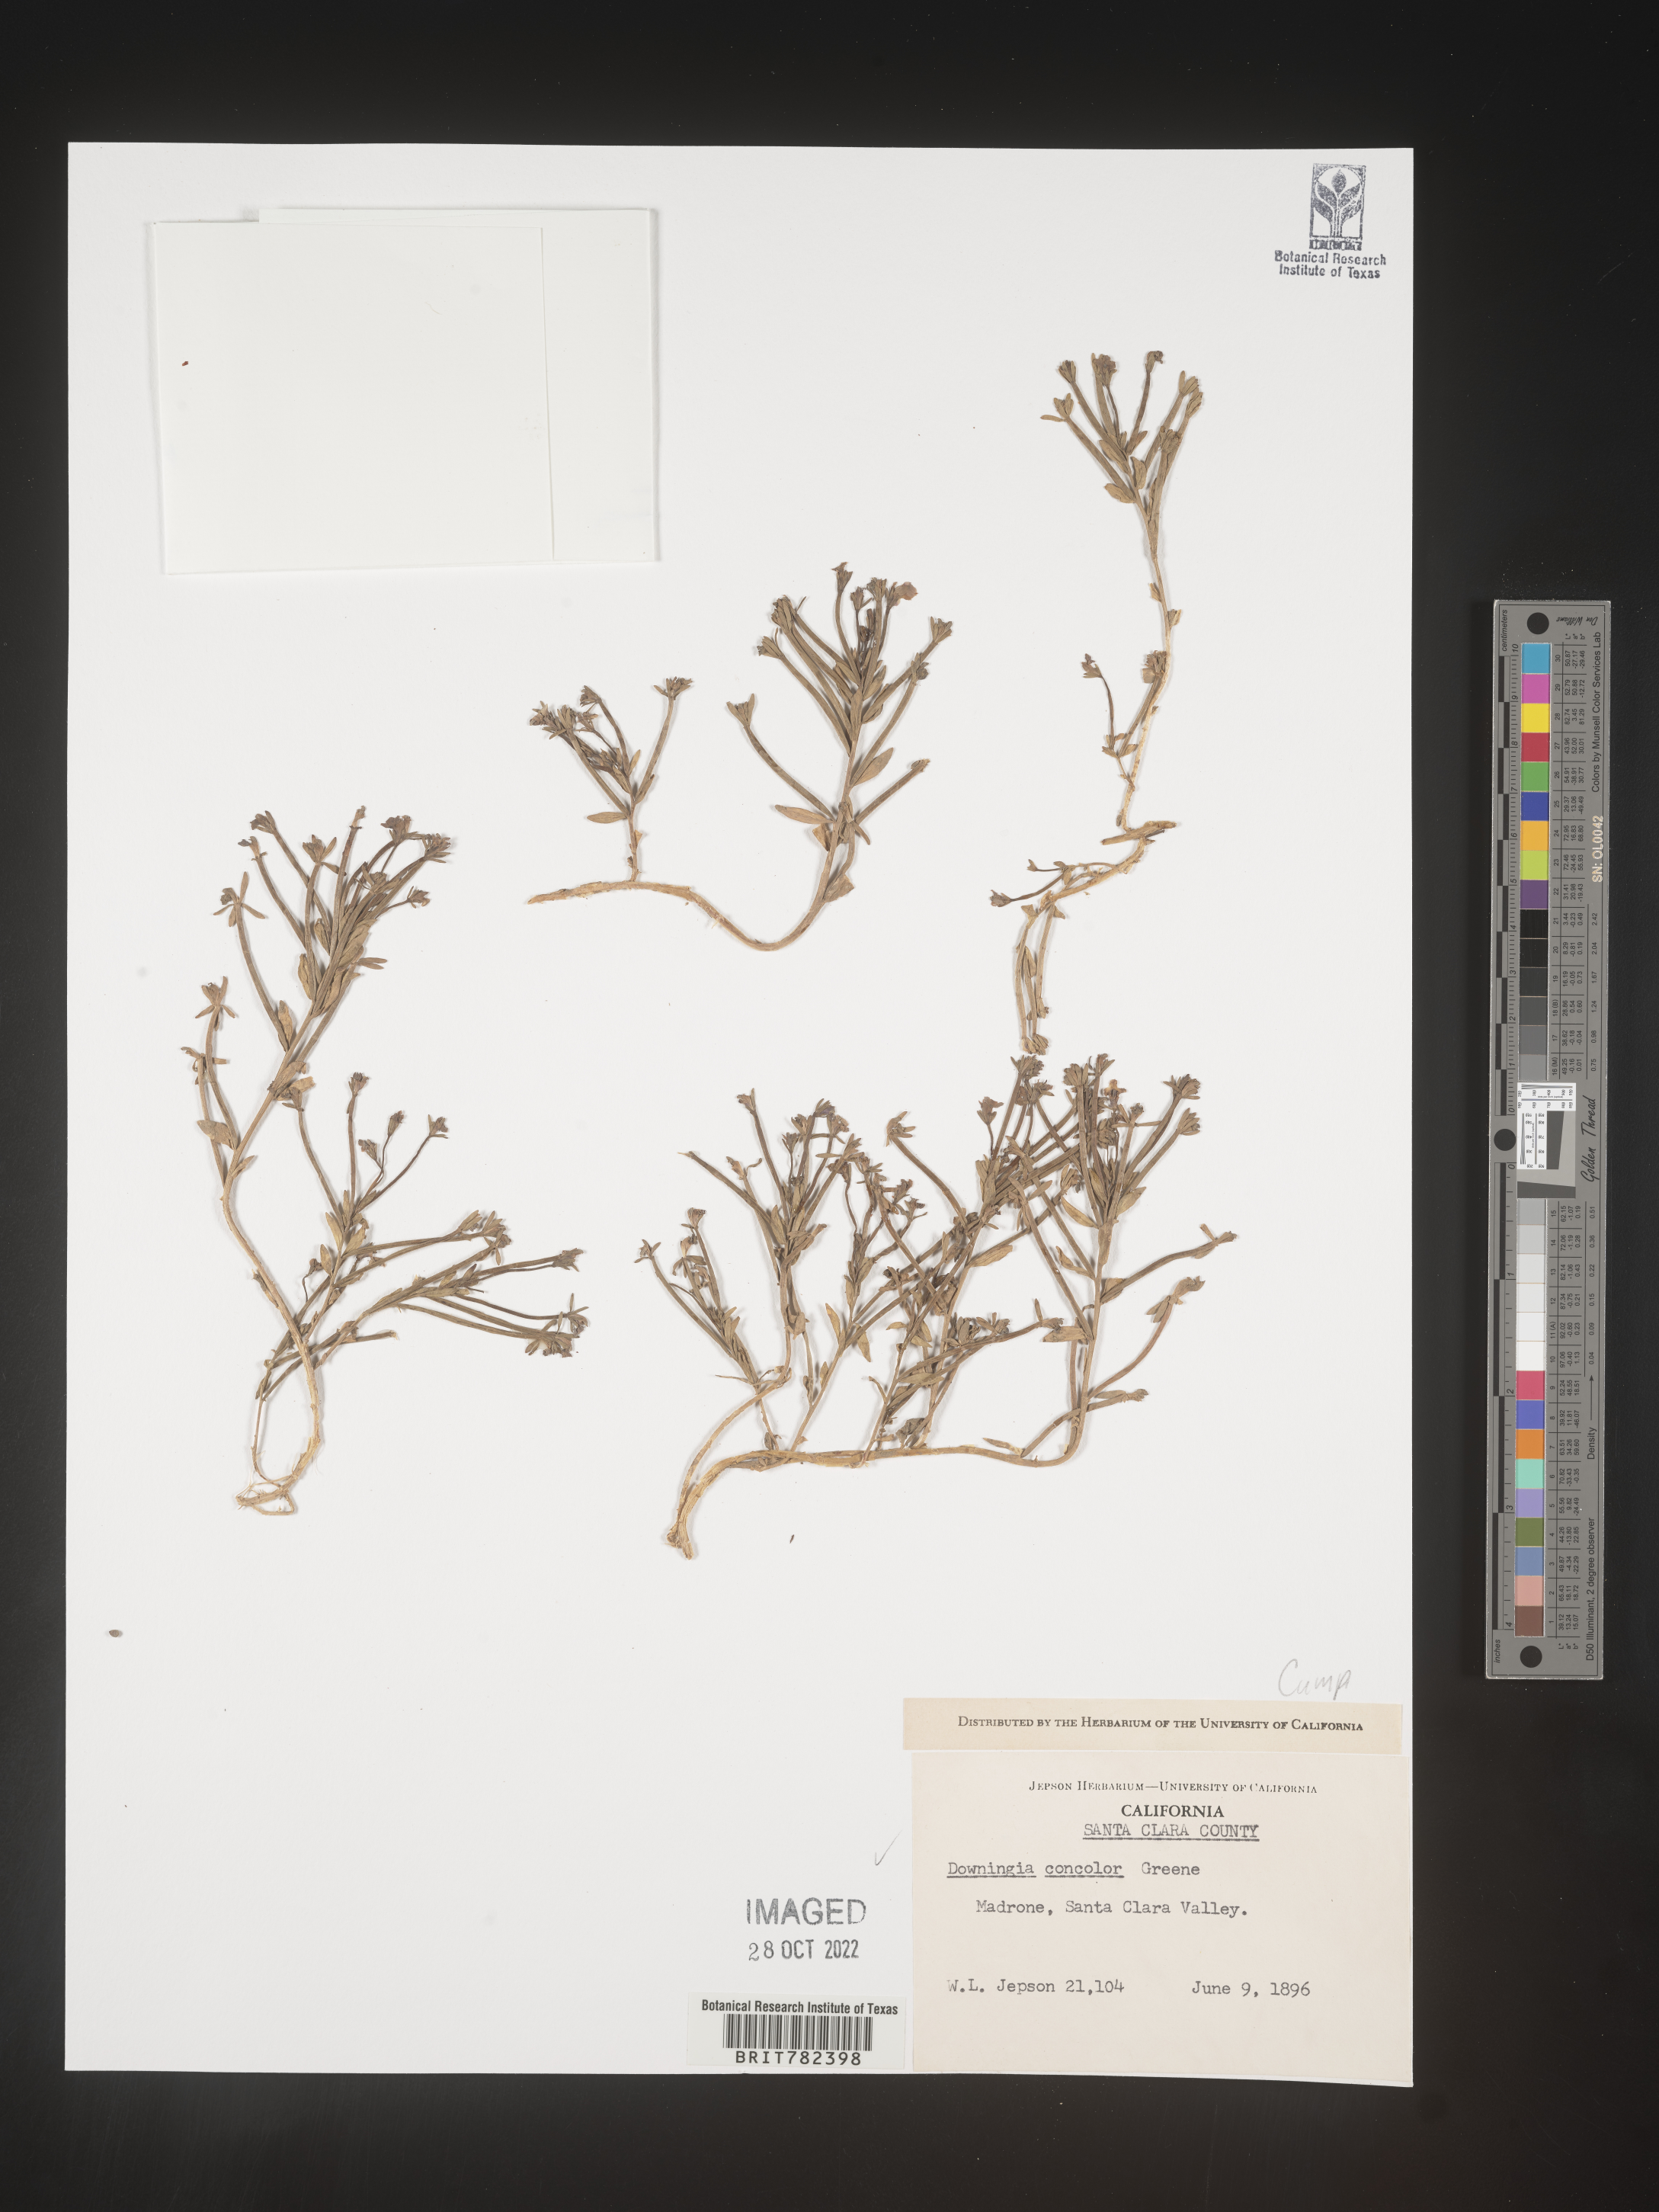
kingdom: Plantae
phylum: Tracheophyta
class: Magnoliopsida
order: Asterales
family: Campanulaceae
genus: Downingia
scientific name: Downingia
